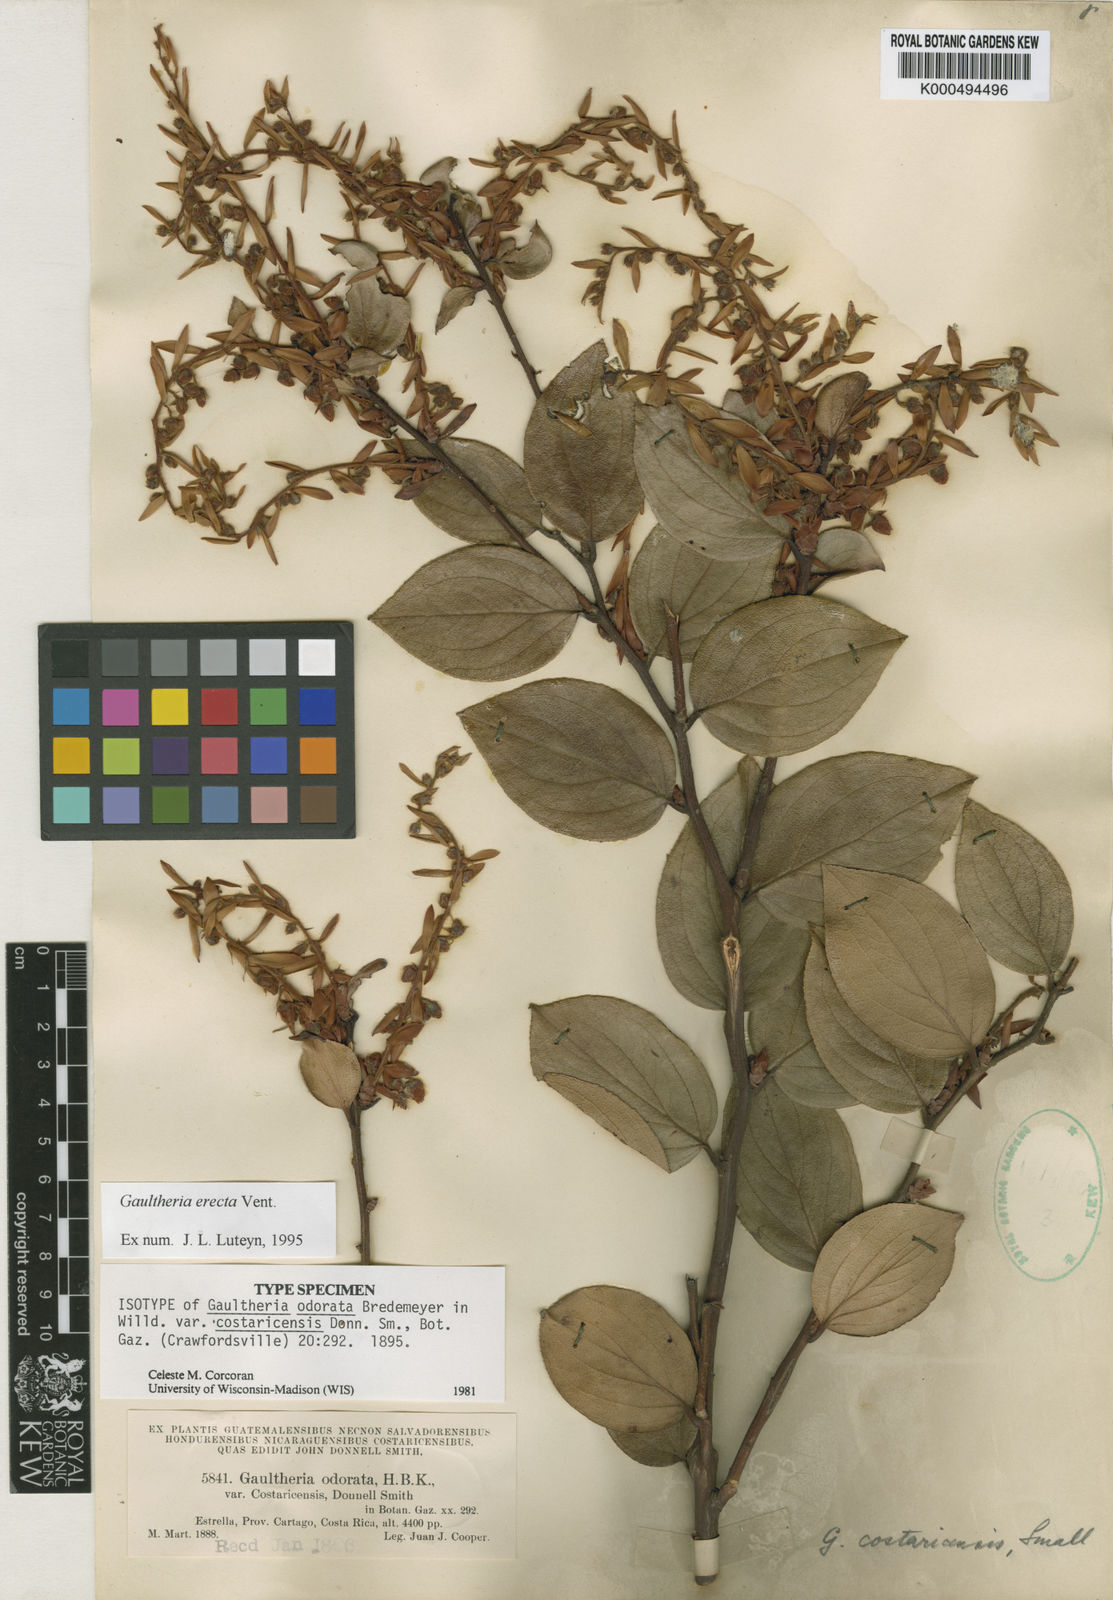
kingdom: Plantae
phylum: Tracheophyta
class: Magnoliopsida
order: Ericales
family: Ericaceae
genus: Gaultheria
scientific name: Gaultheria erecta
